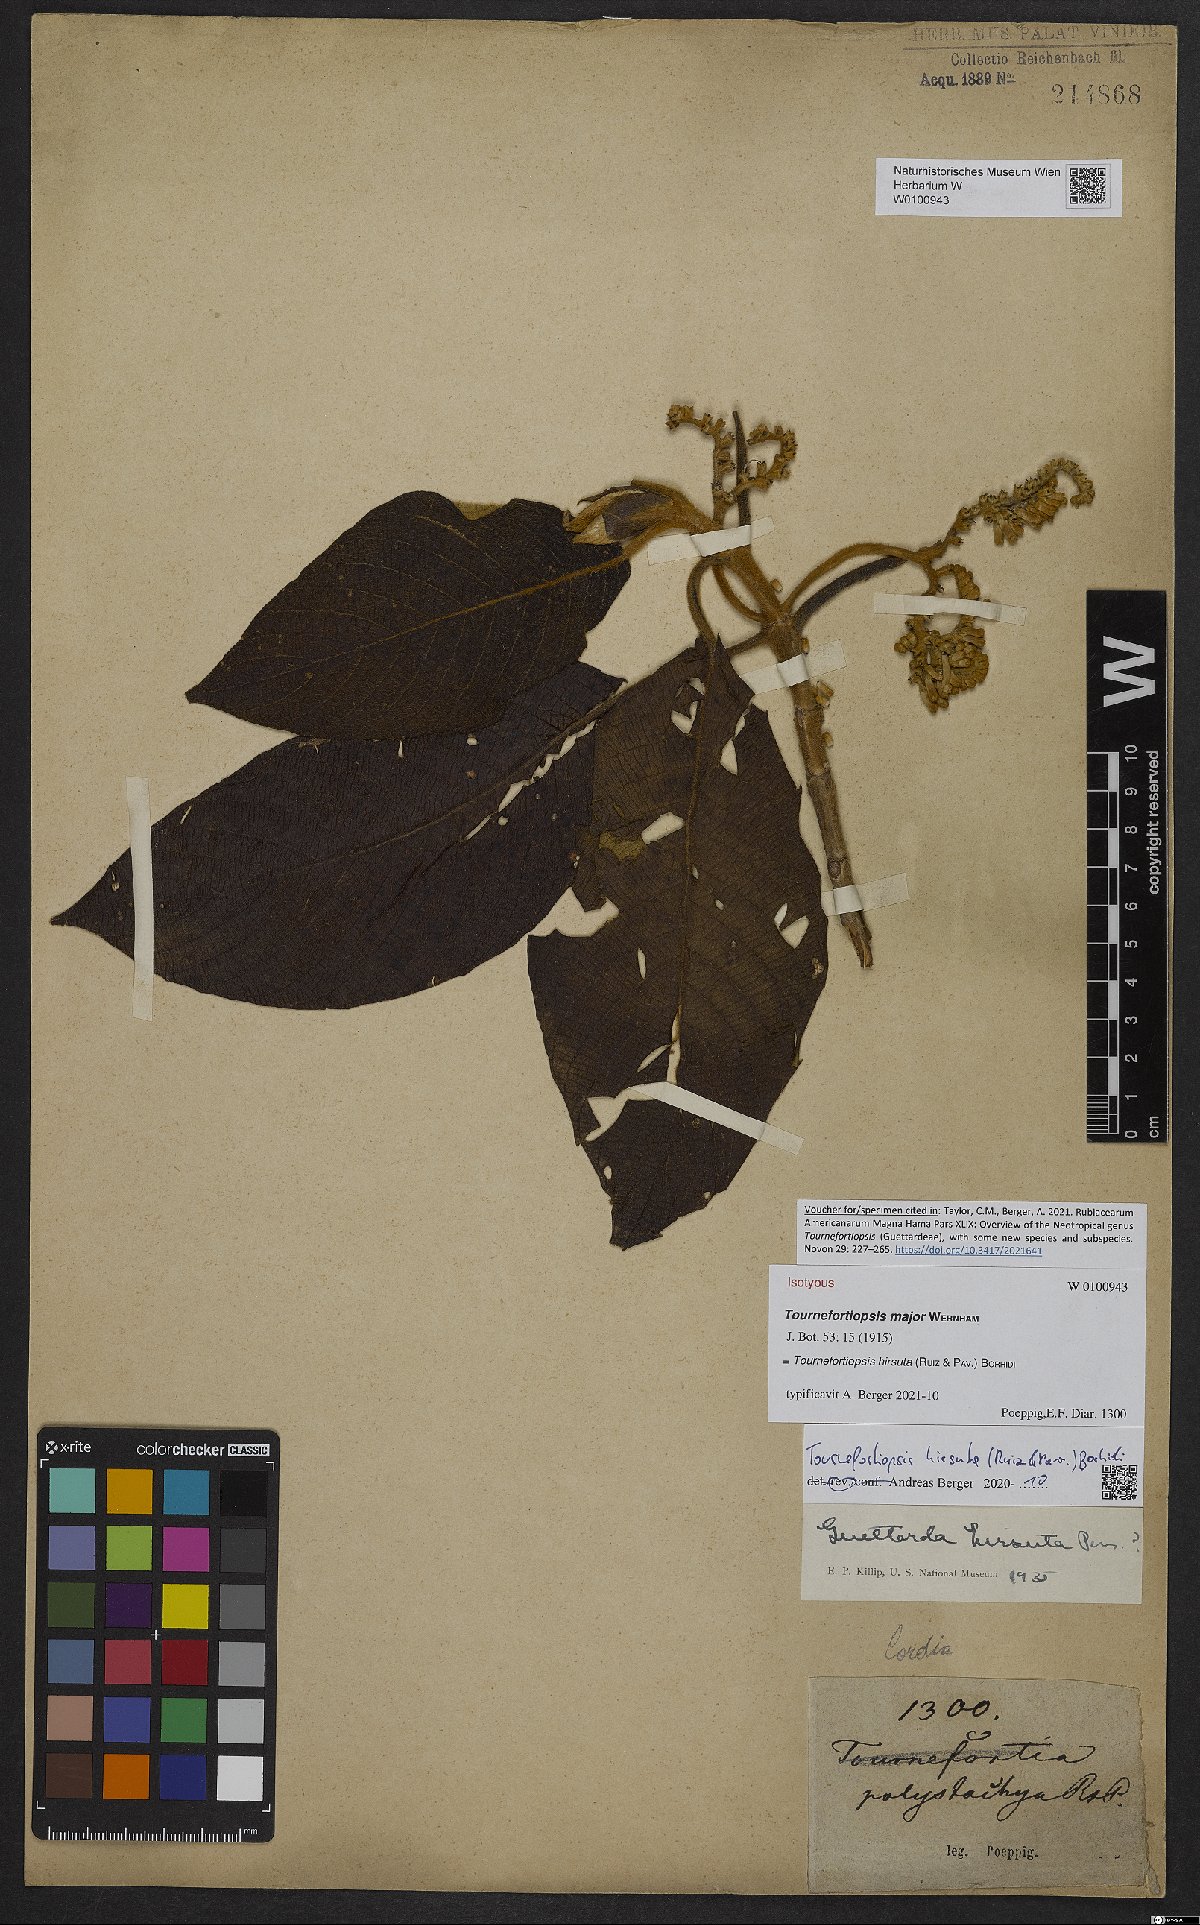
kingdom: Plantae
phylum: Tracheophyta
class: Magnoliopsida
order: Gentianales
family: Rubiaceae
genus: Tournefortiopsis
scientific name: Tournefortiopsis hirsuta
